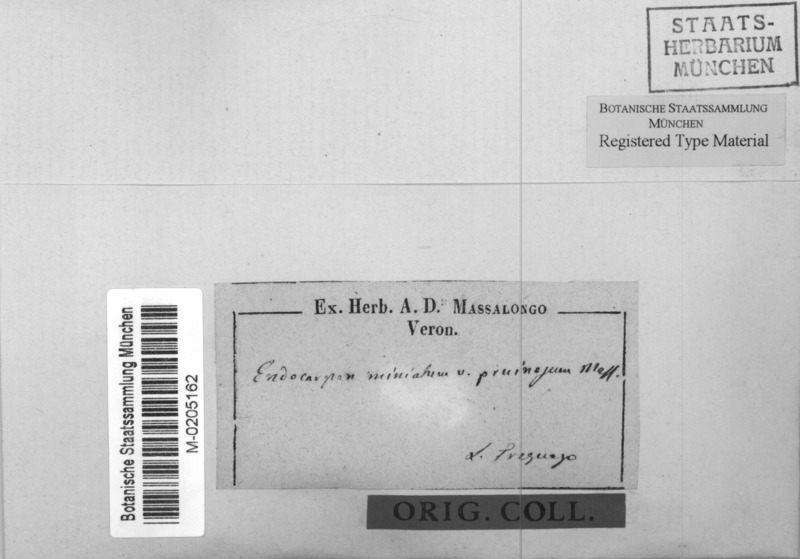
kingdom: Fungi
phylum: Ascomycota
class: Eurotiomycetes
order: Verrucariales
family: Verrucariaceae
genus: Dermatocarpon
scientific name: Dermatocarpon miniatum
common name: Leather lichen
